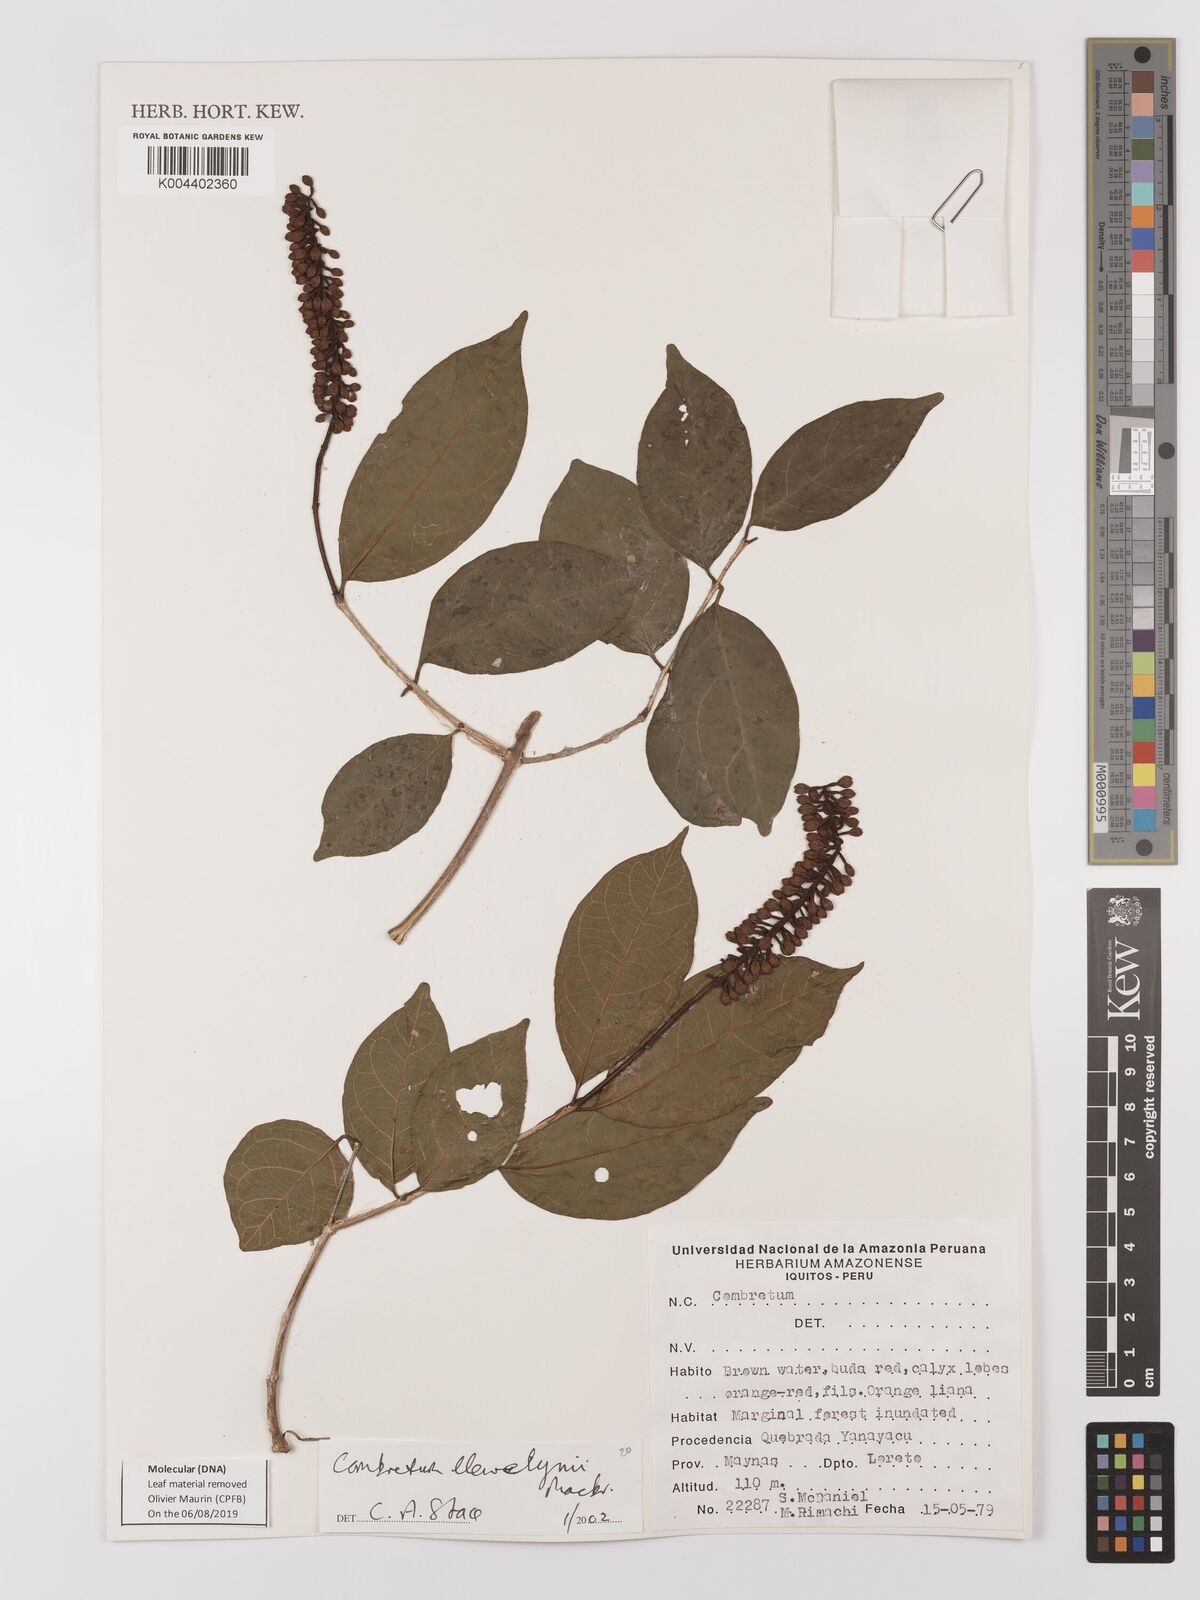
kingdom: Plantae
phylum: Tracheophyta
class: Magnoliopsida
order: Myrtales
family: Combretaceae
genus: Combretum
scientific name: Combretum llewelynii
